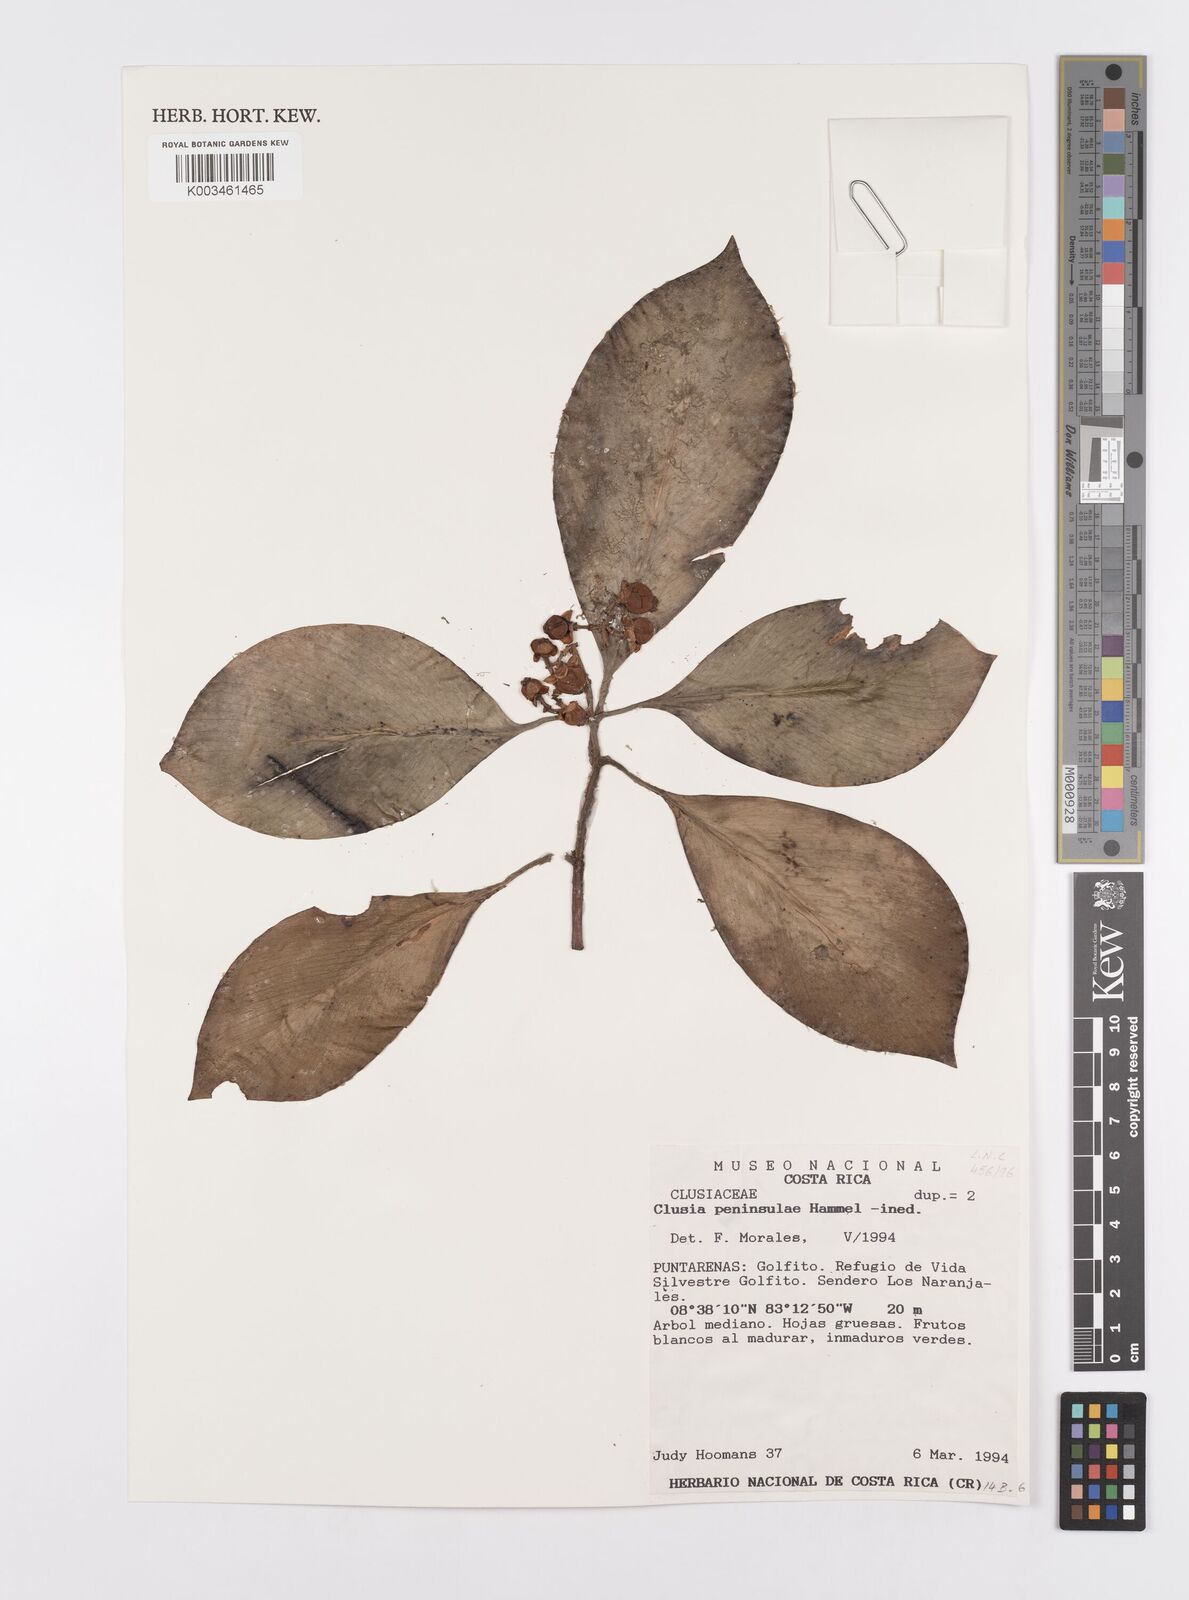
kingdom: Plantae
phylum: Tracheophyta
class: Magnoliopsida
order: Malpighiales
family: Clusiaceae
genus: Clusia
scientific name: Clusia peninsulae
